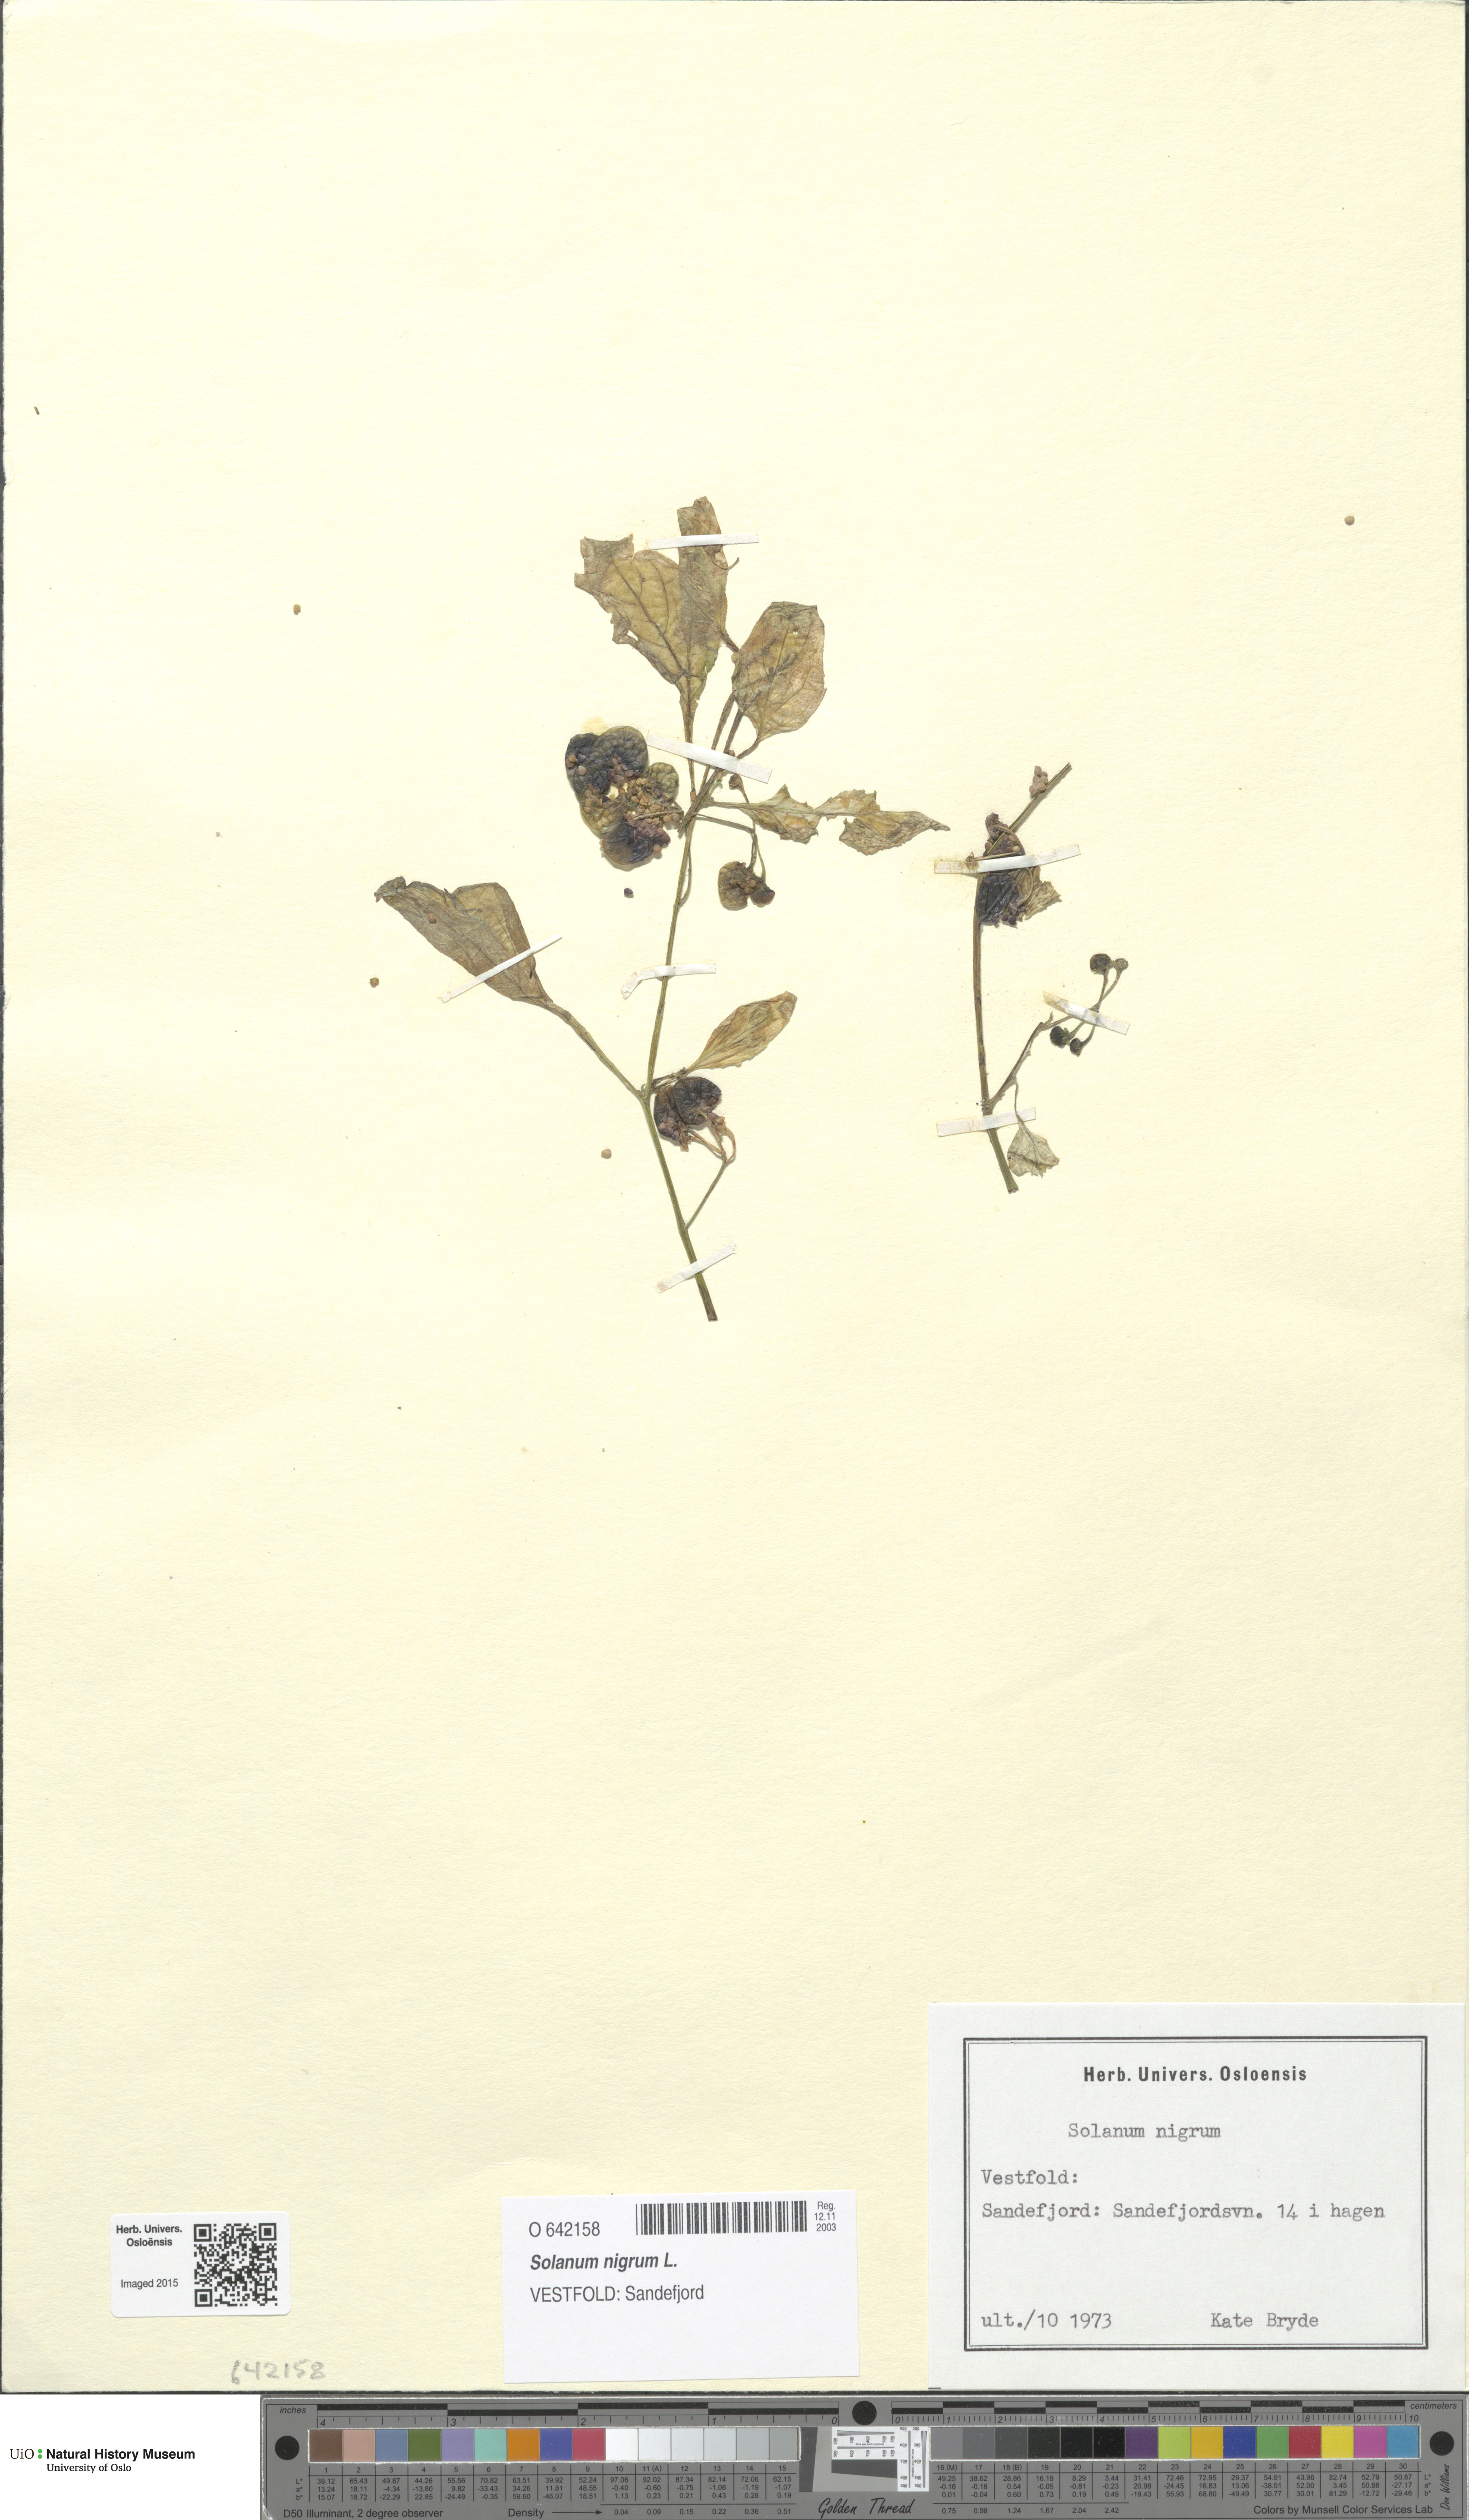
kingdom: Plantae
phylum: Tracheophyta
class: Magnoliopsida
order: Solanales
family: Solanaceae
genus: Solanum
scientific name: Solanum nigrum
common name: Black nightshade
